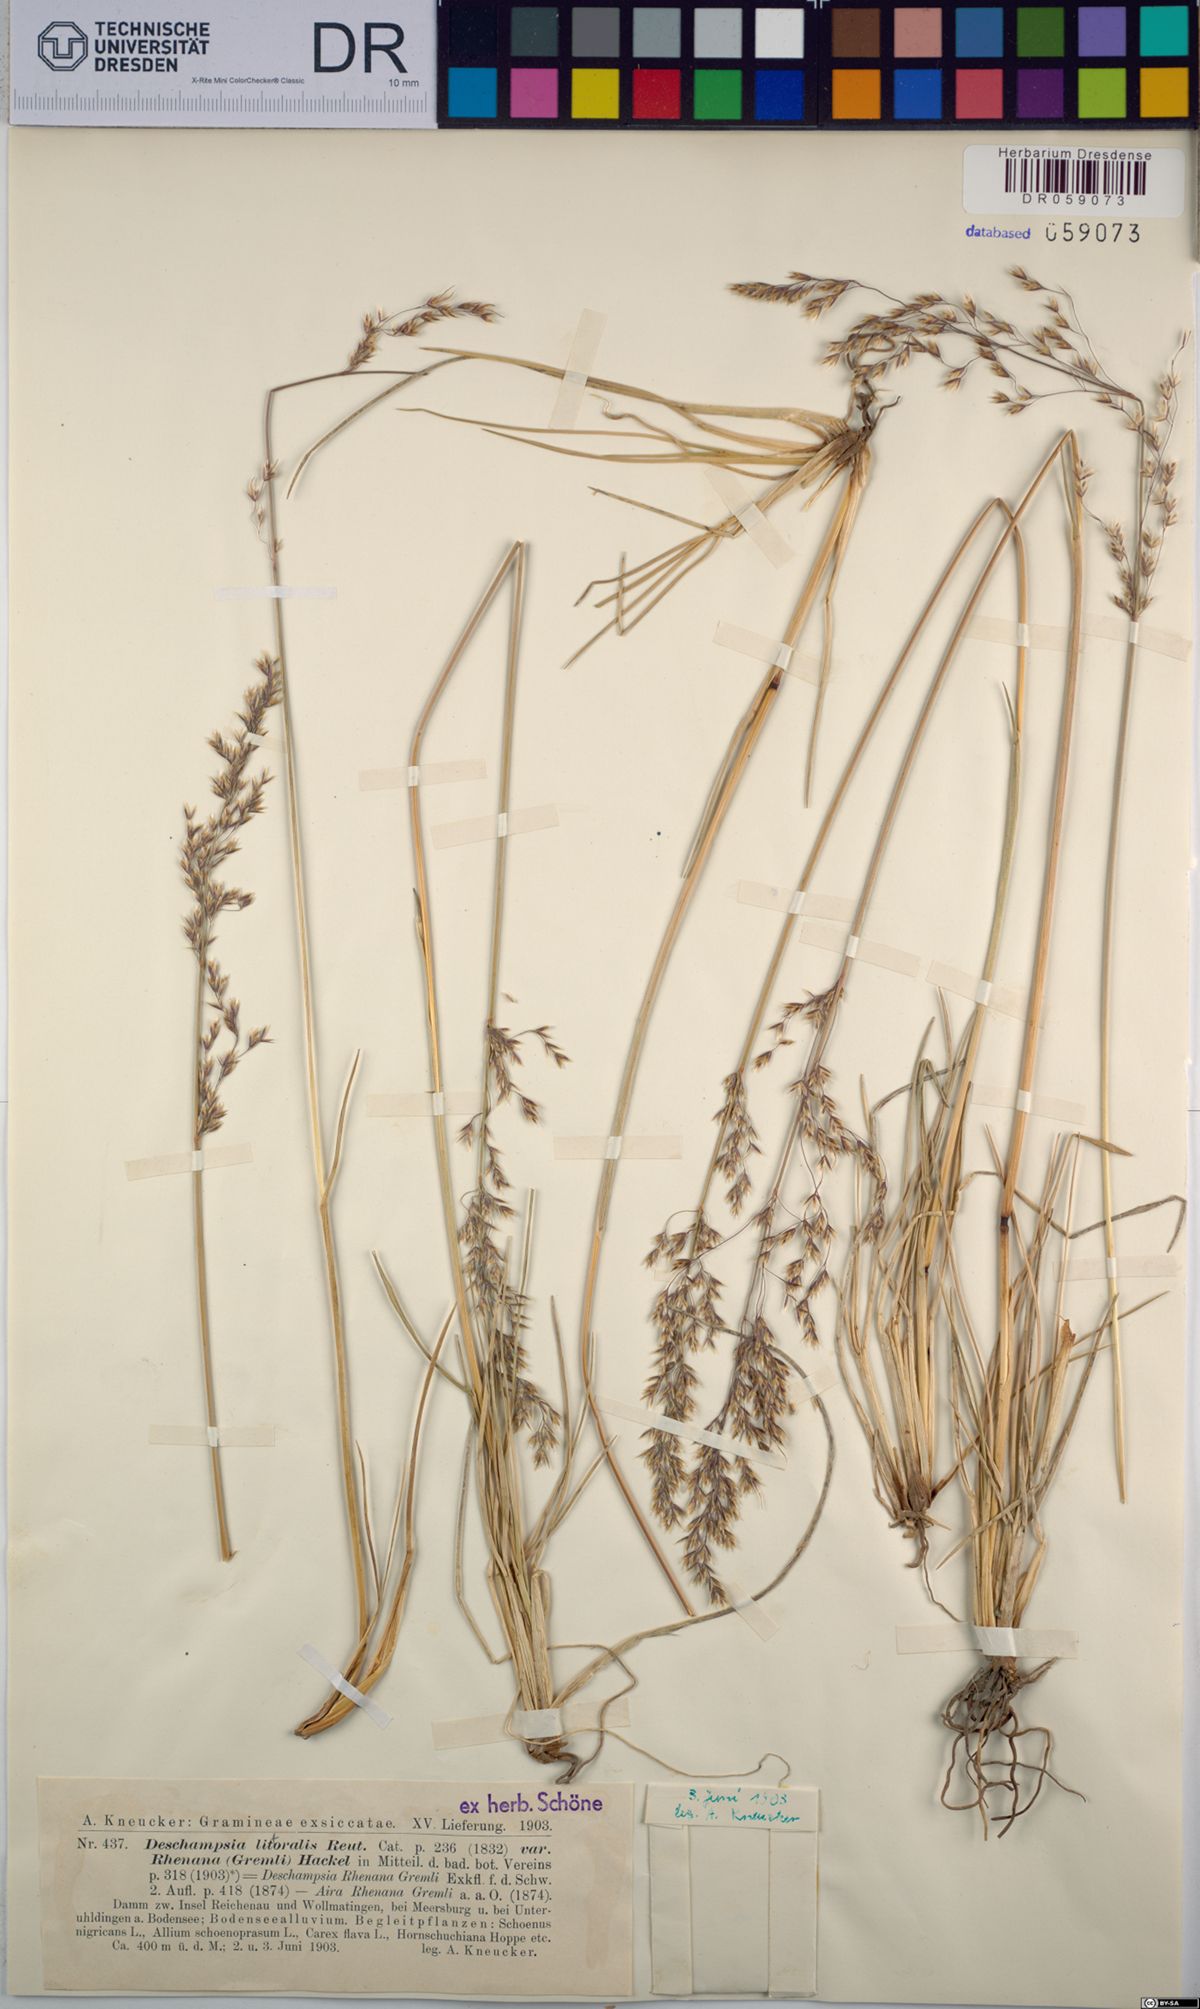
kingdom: Plantae
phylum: Tracheophyta
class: Liliopsida
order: Poales
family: Poaceae
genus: Deschampsia
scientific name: Deschampsia cespitosa
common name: Tufted hair-grass
